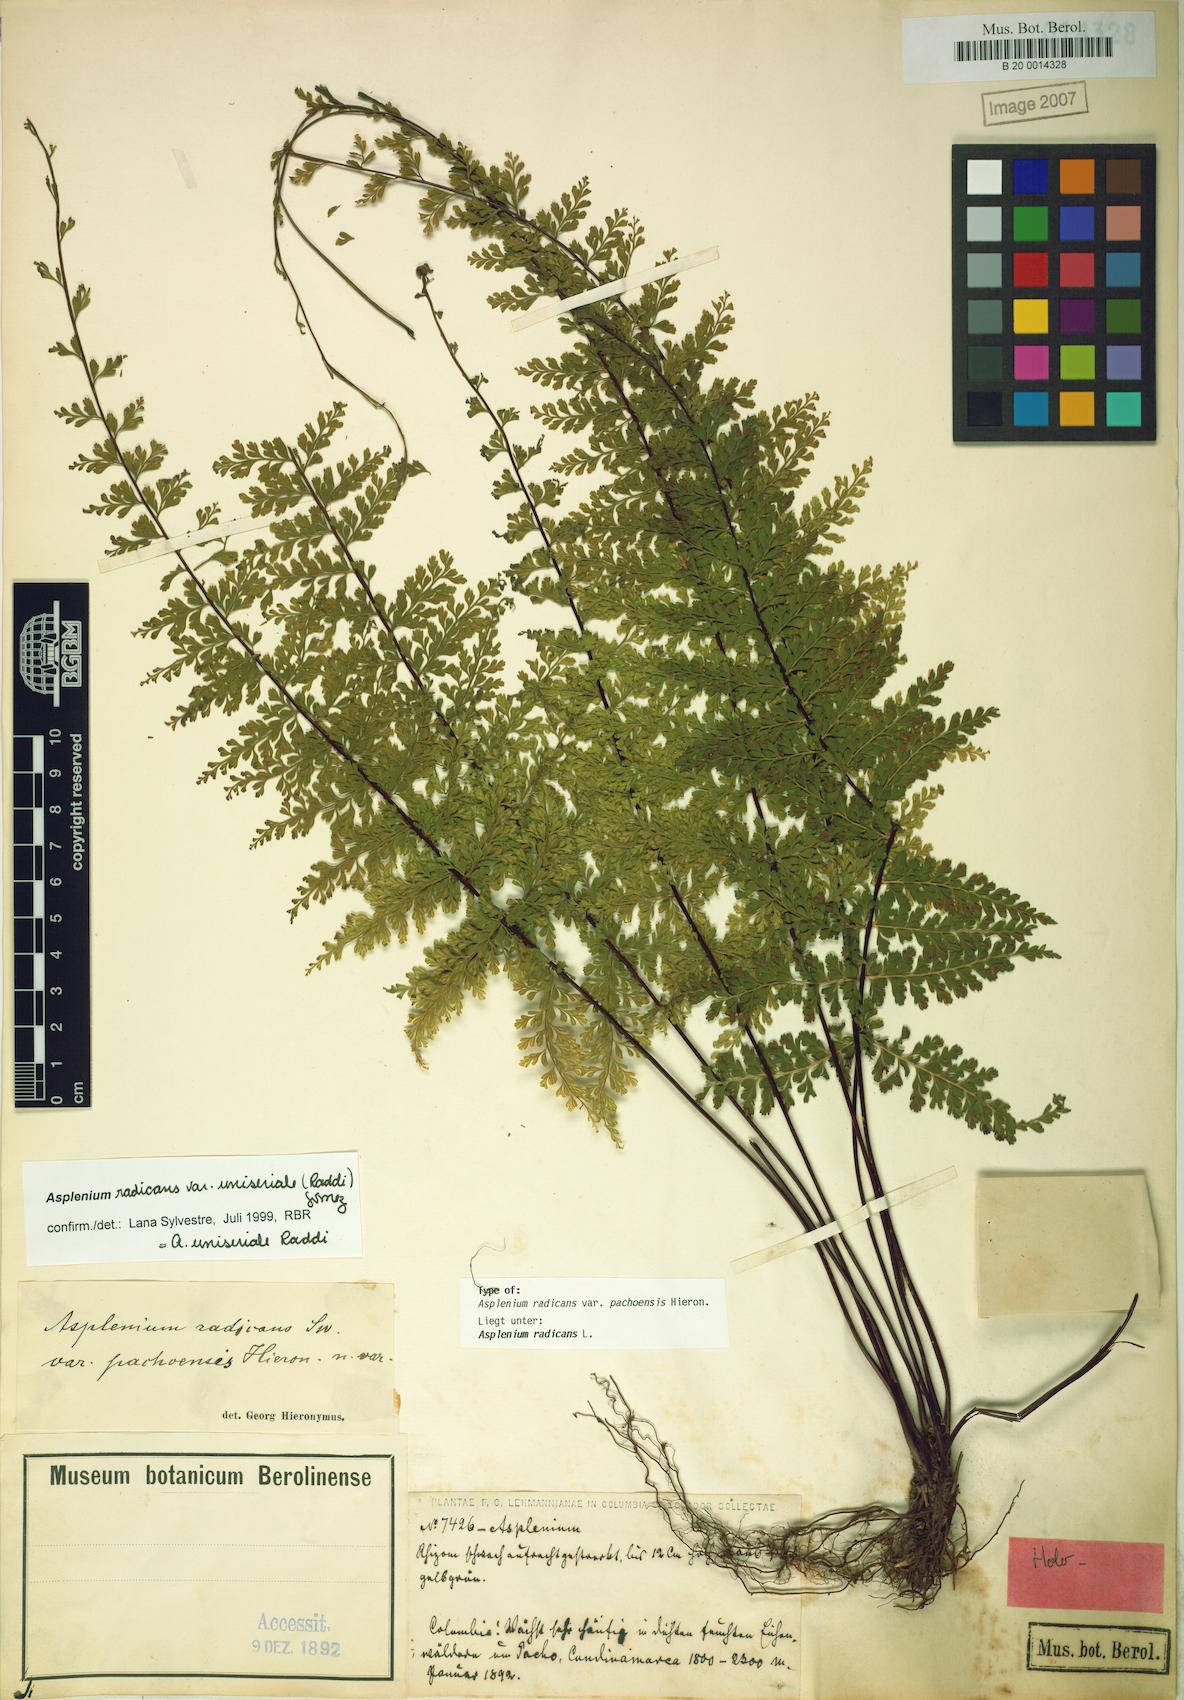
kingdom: Plantae
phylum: Tracheophyta
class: Polypodiopsida
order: Polypodiales
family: Aspleniaceae
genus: Asplenium
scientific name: Asplenium radicans
